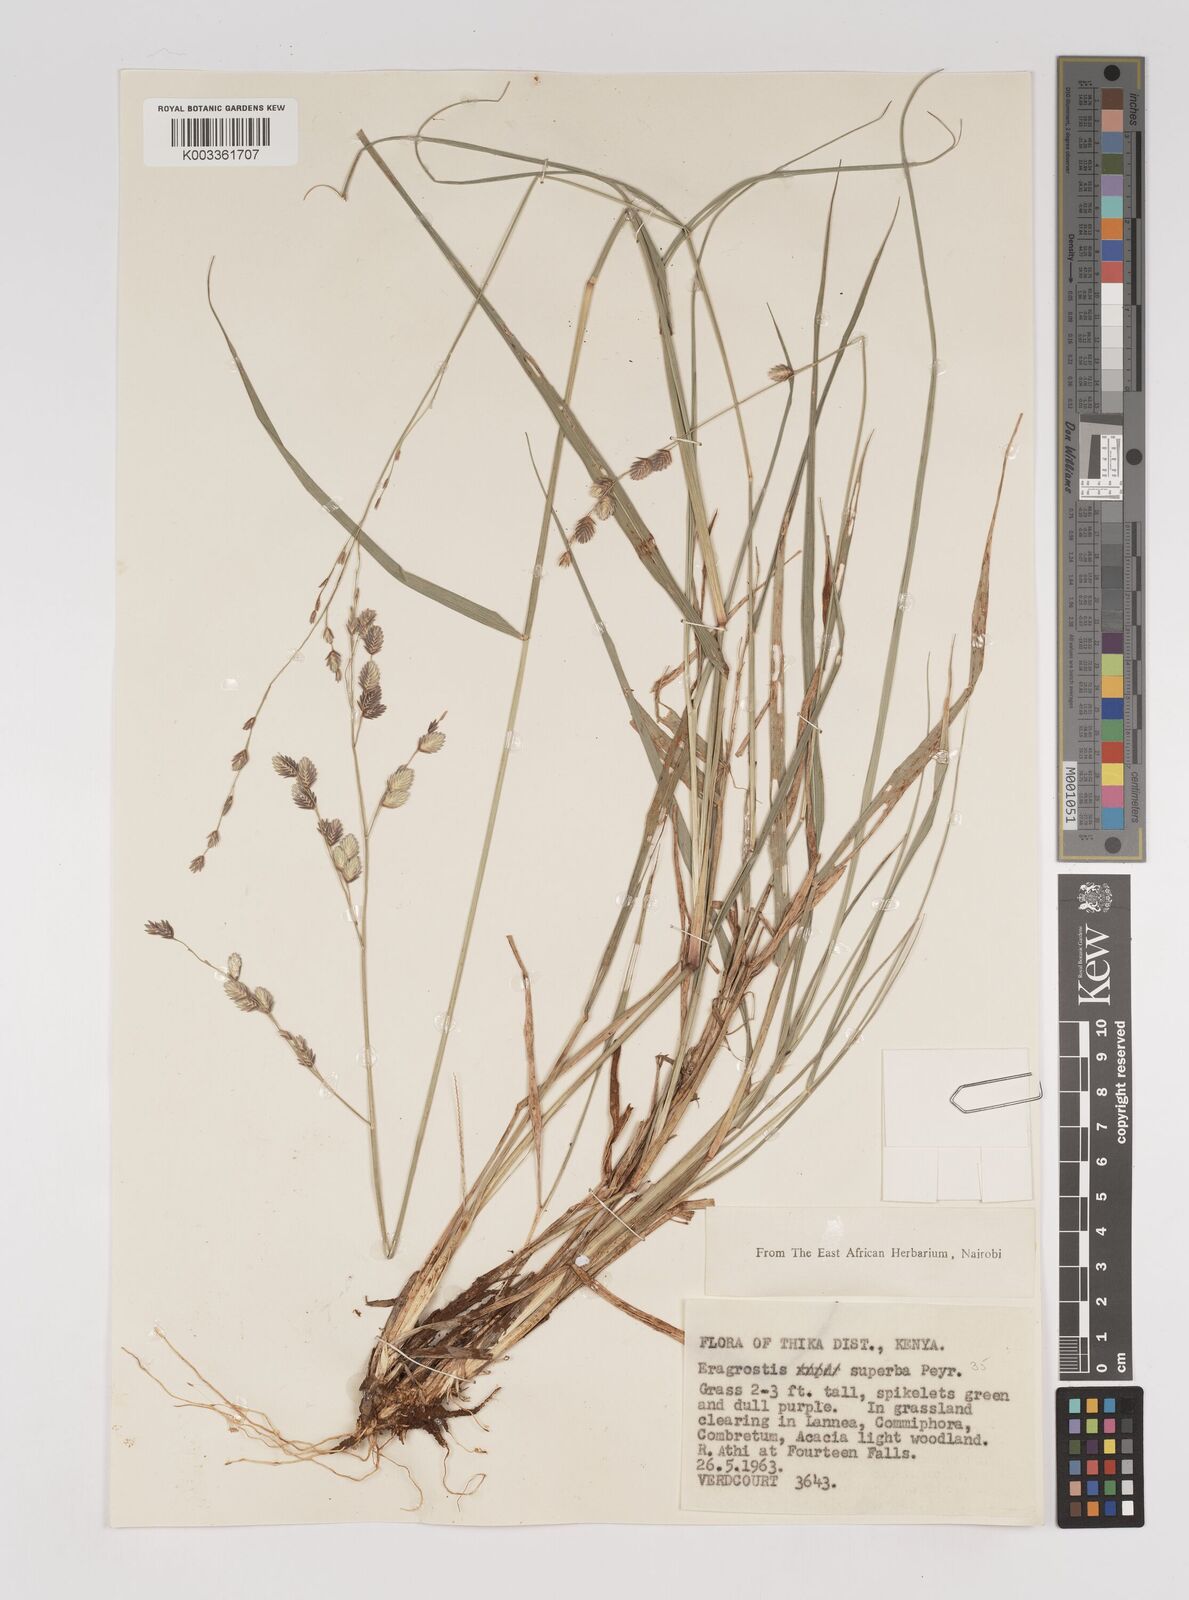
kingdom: Plantae
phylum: Tracheophyta
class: Liliopsida
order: Poales
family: Poaceae
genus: Eragrostis
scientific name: Eragrostis superba
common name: Wilman lovegrass
